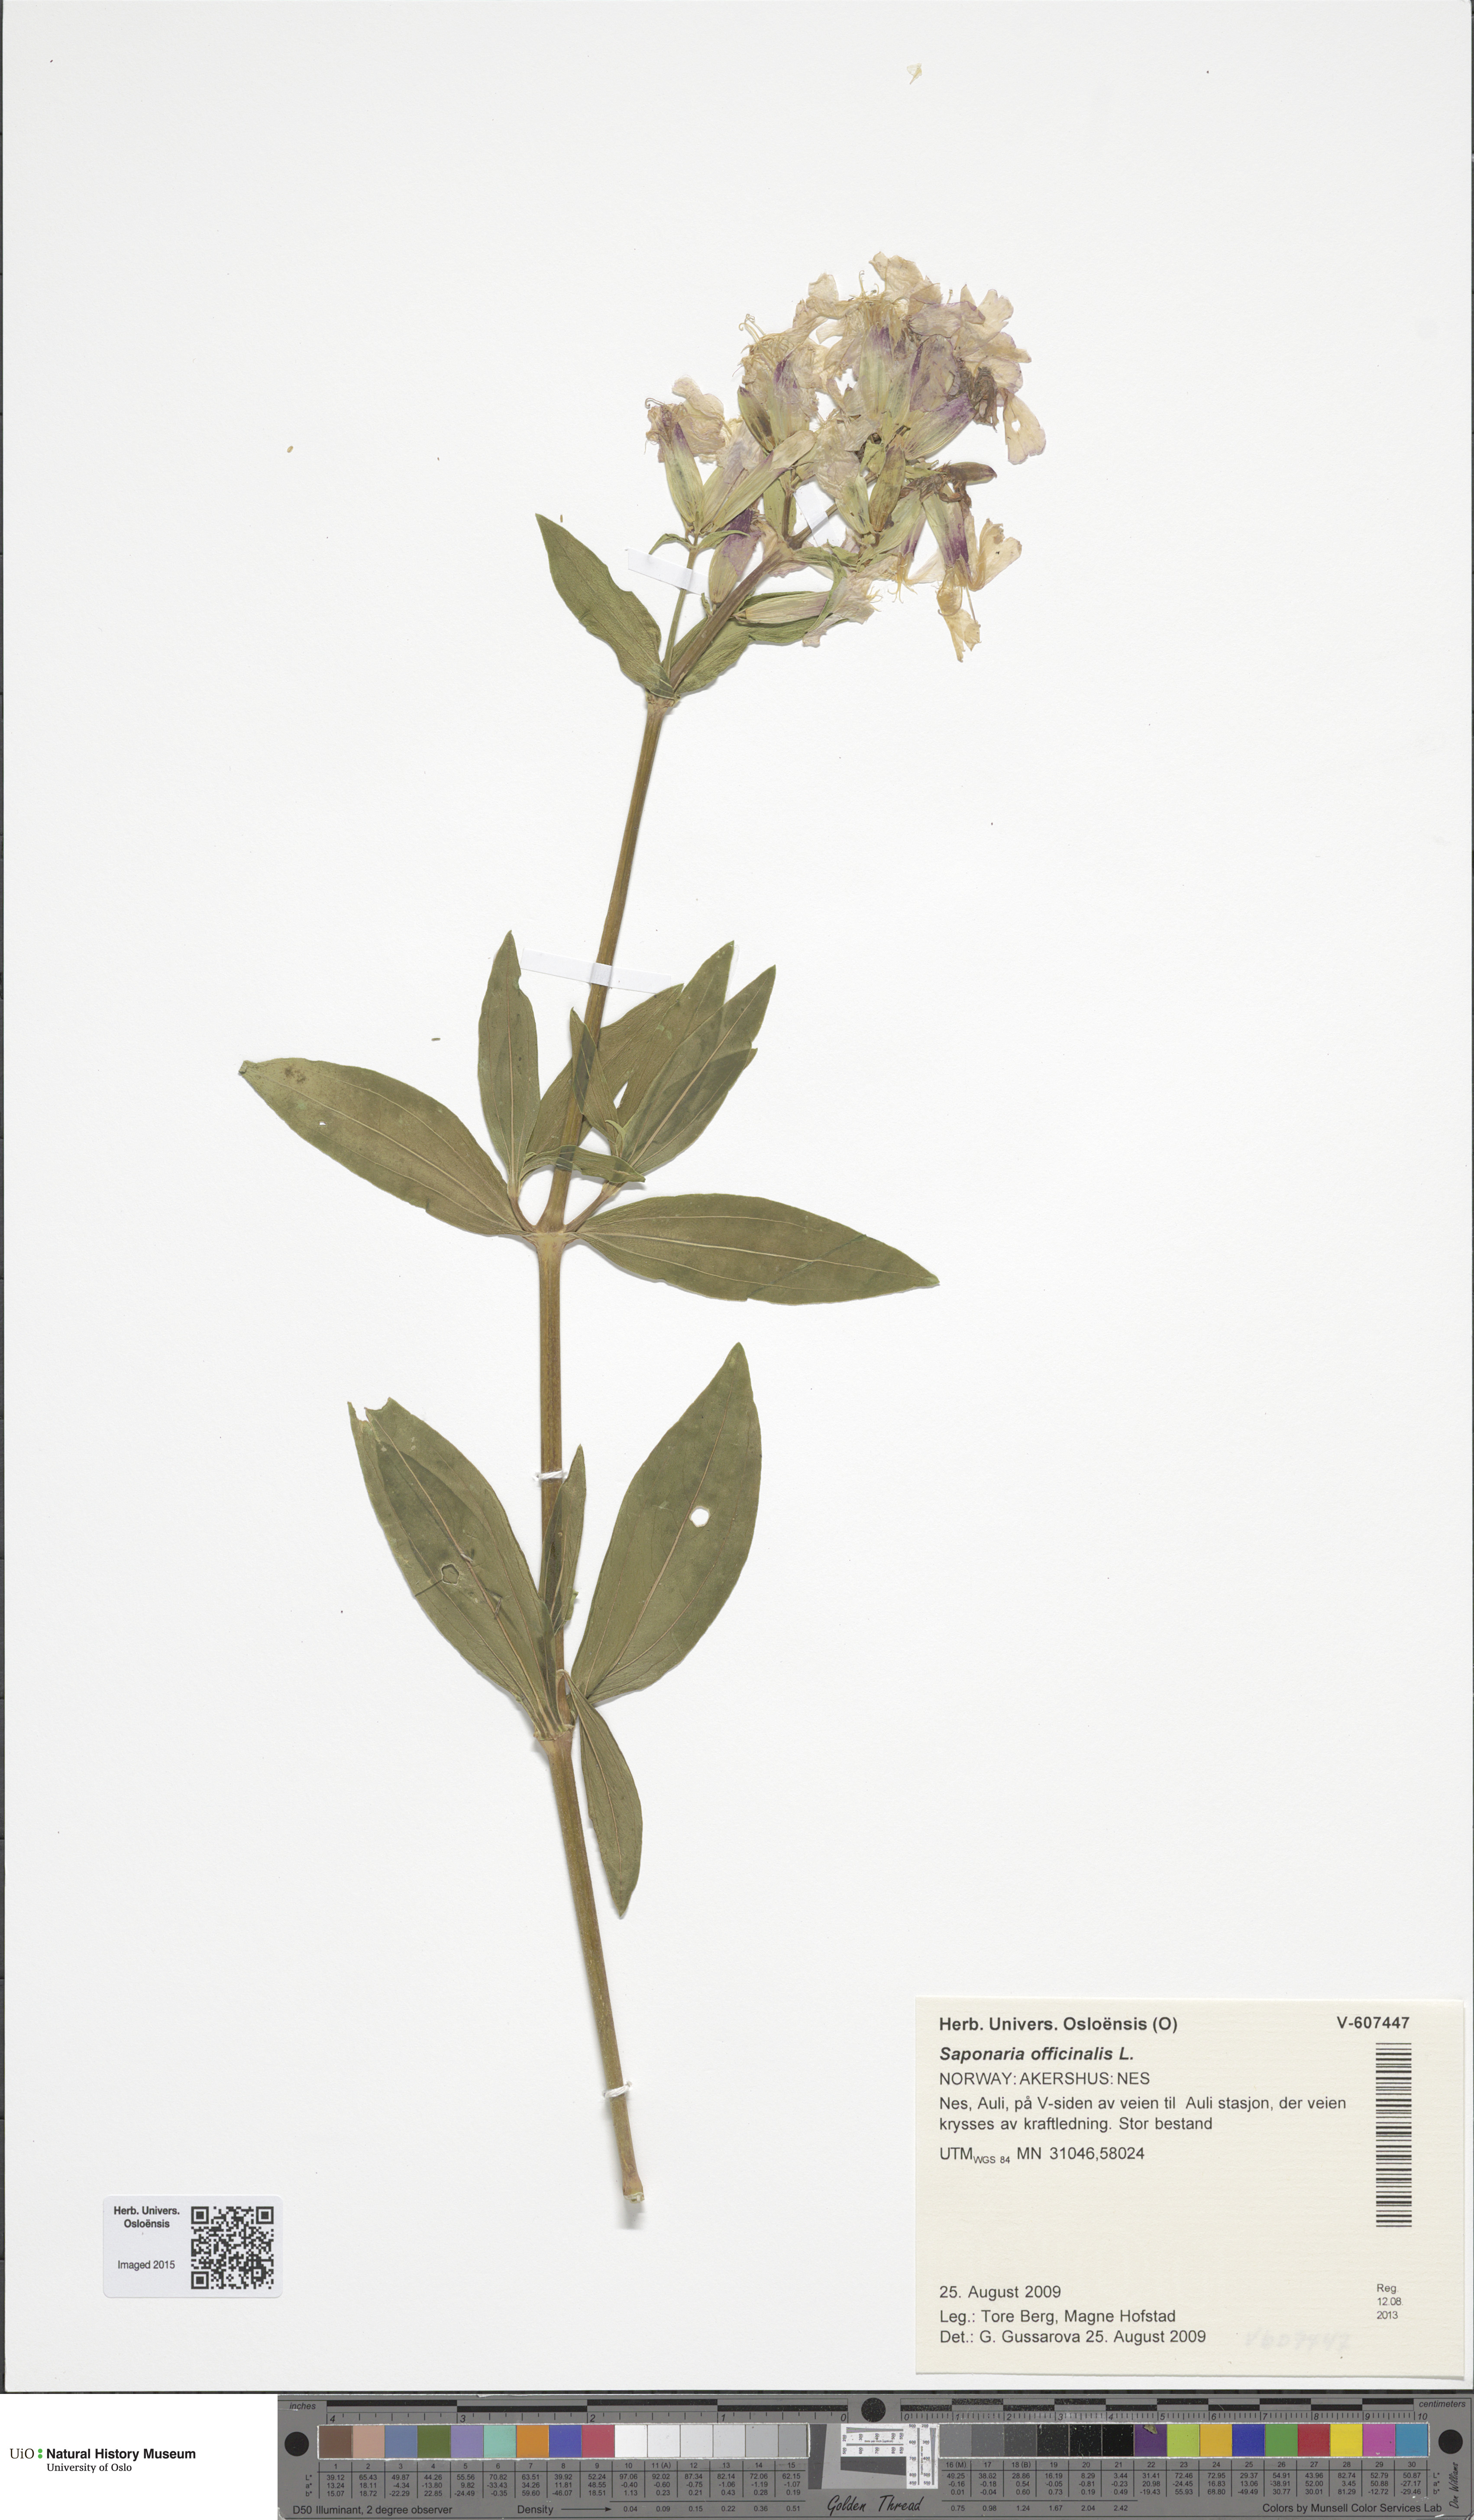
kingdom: Plantae
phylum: Tracheophyta
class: Magnoliopsida
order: Caryophyllales
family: Caryophyllaceae
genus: Saponaria
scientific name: Saponaria officinalis
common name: Soapwort
